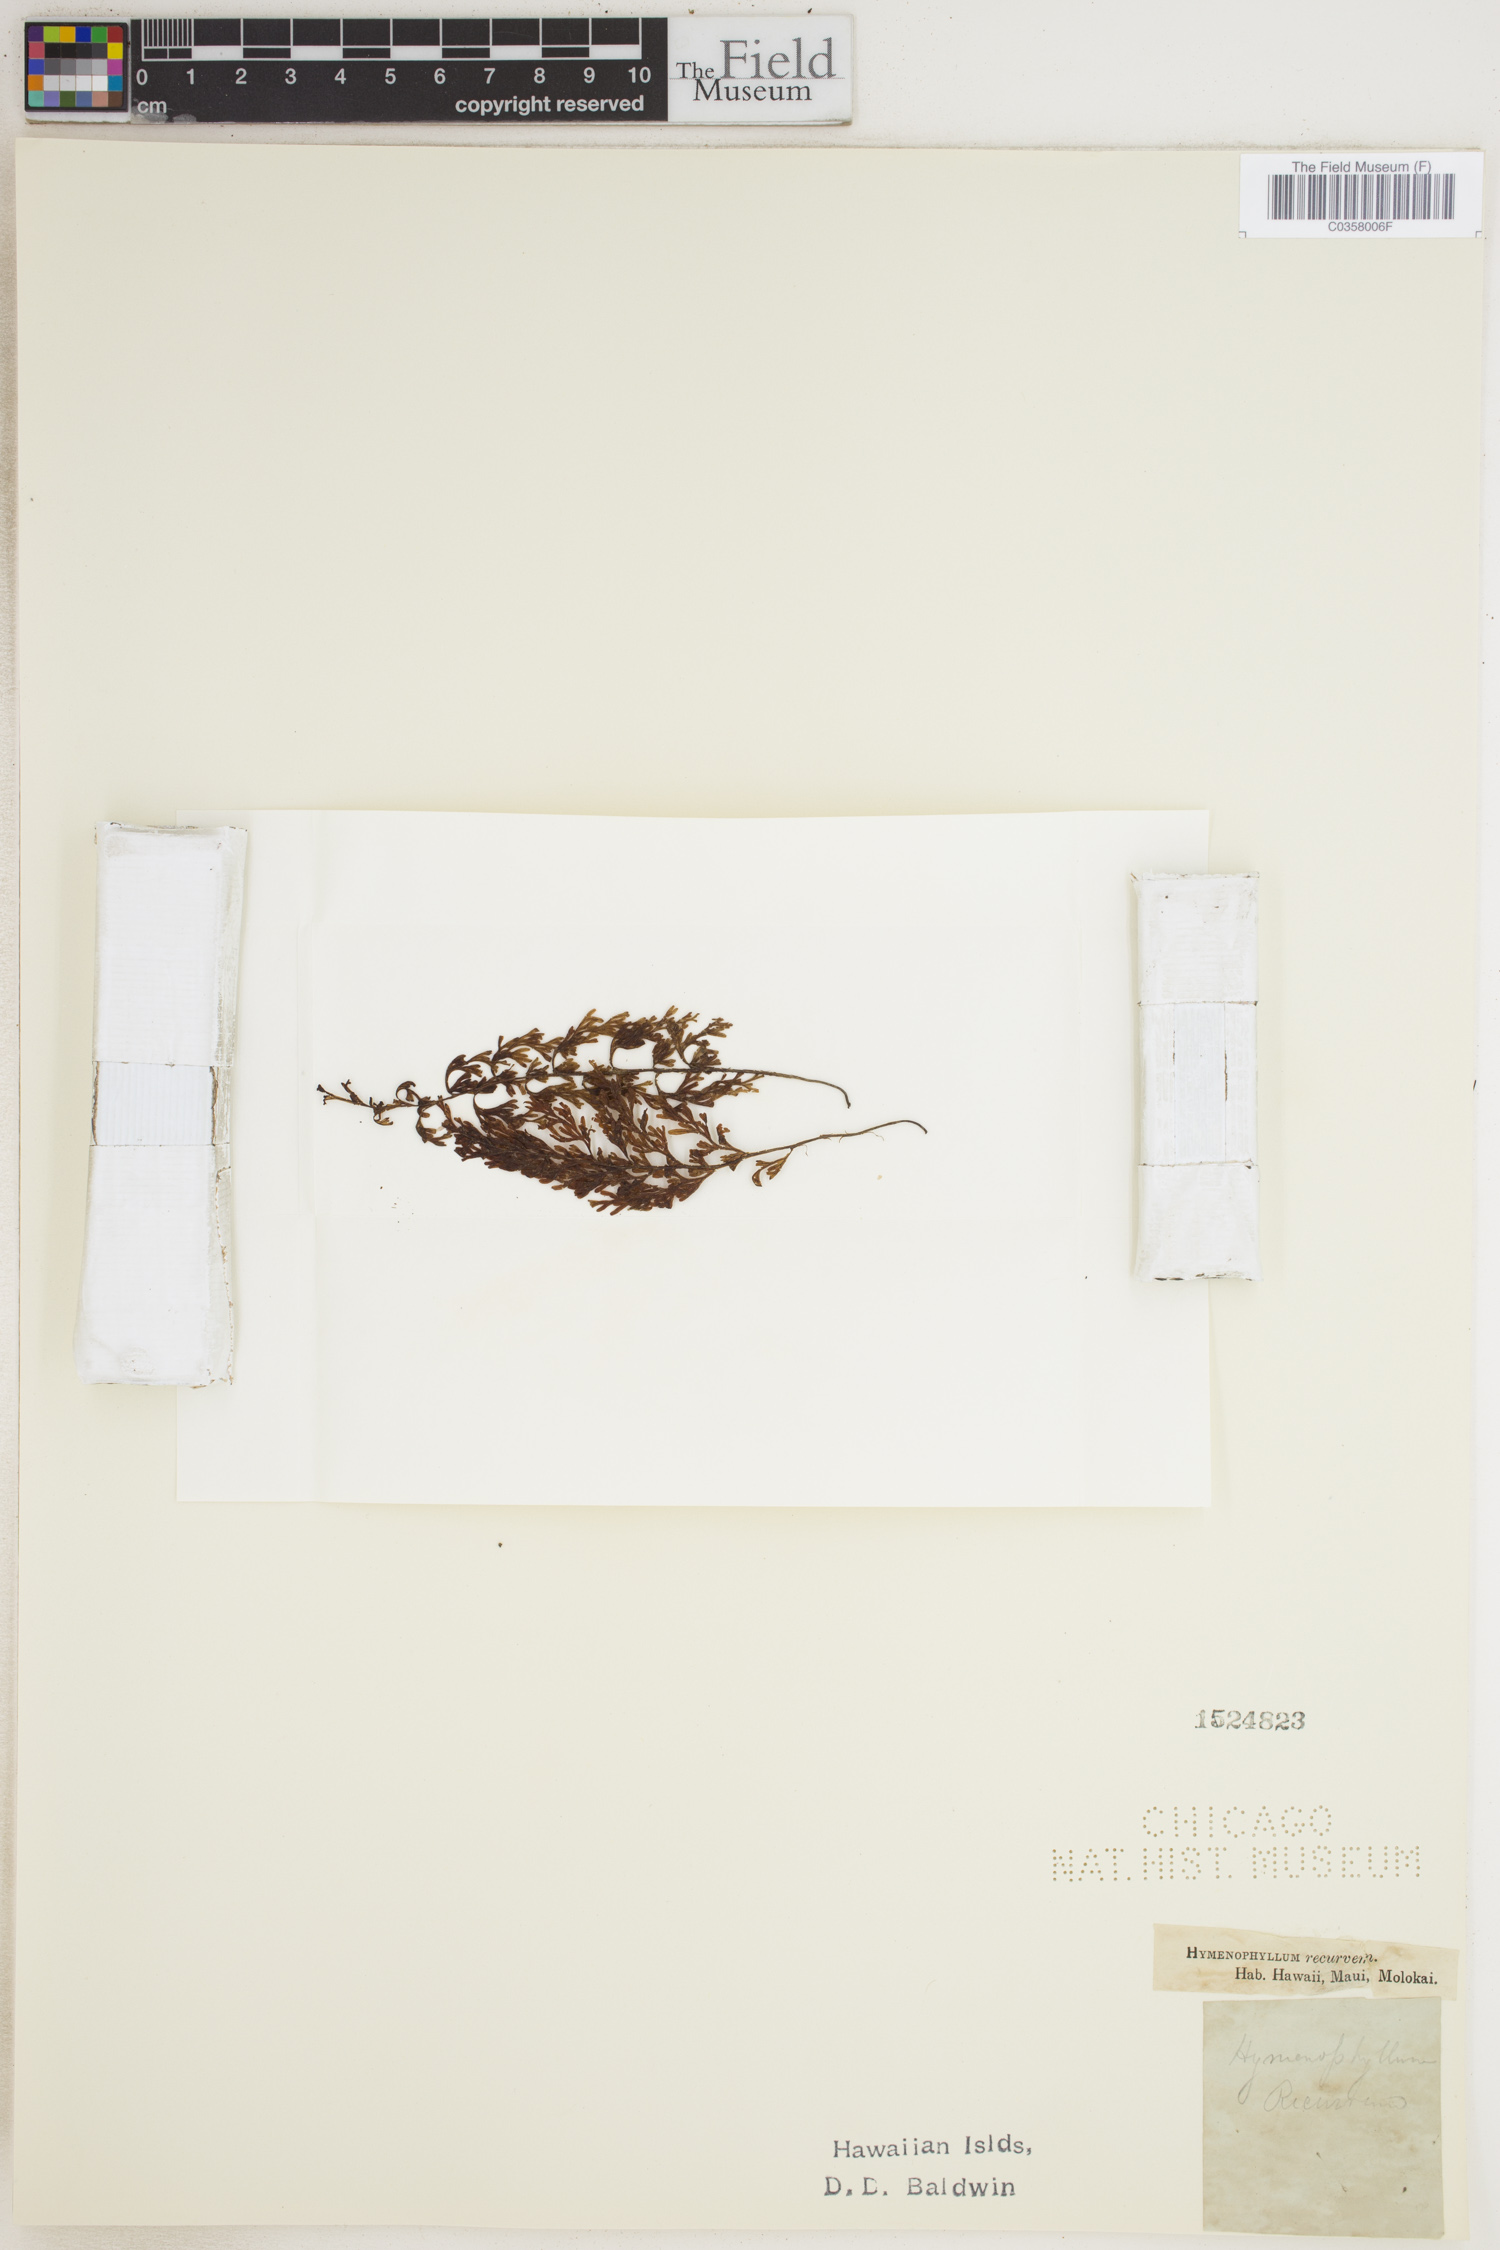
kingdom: Plantae
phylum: Tracheophyta
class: Polypodiopsida
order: Hymenophyllales
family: Hymenophyllaceae
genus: Hymenophyllum
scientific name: Hymenophyllum recurvum
